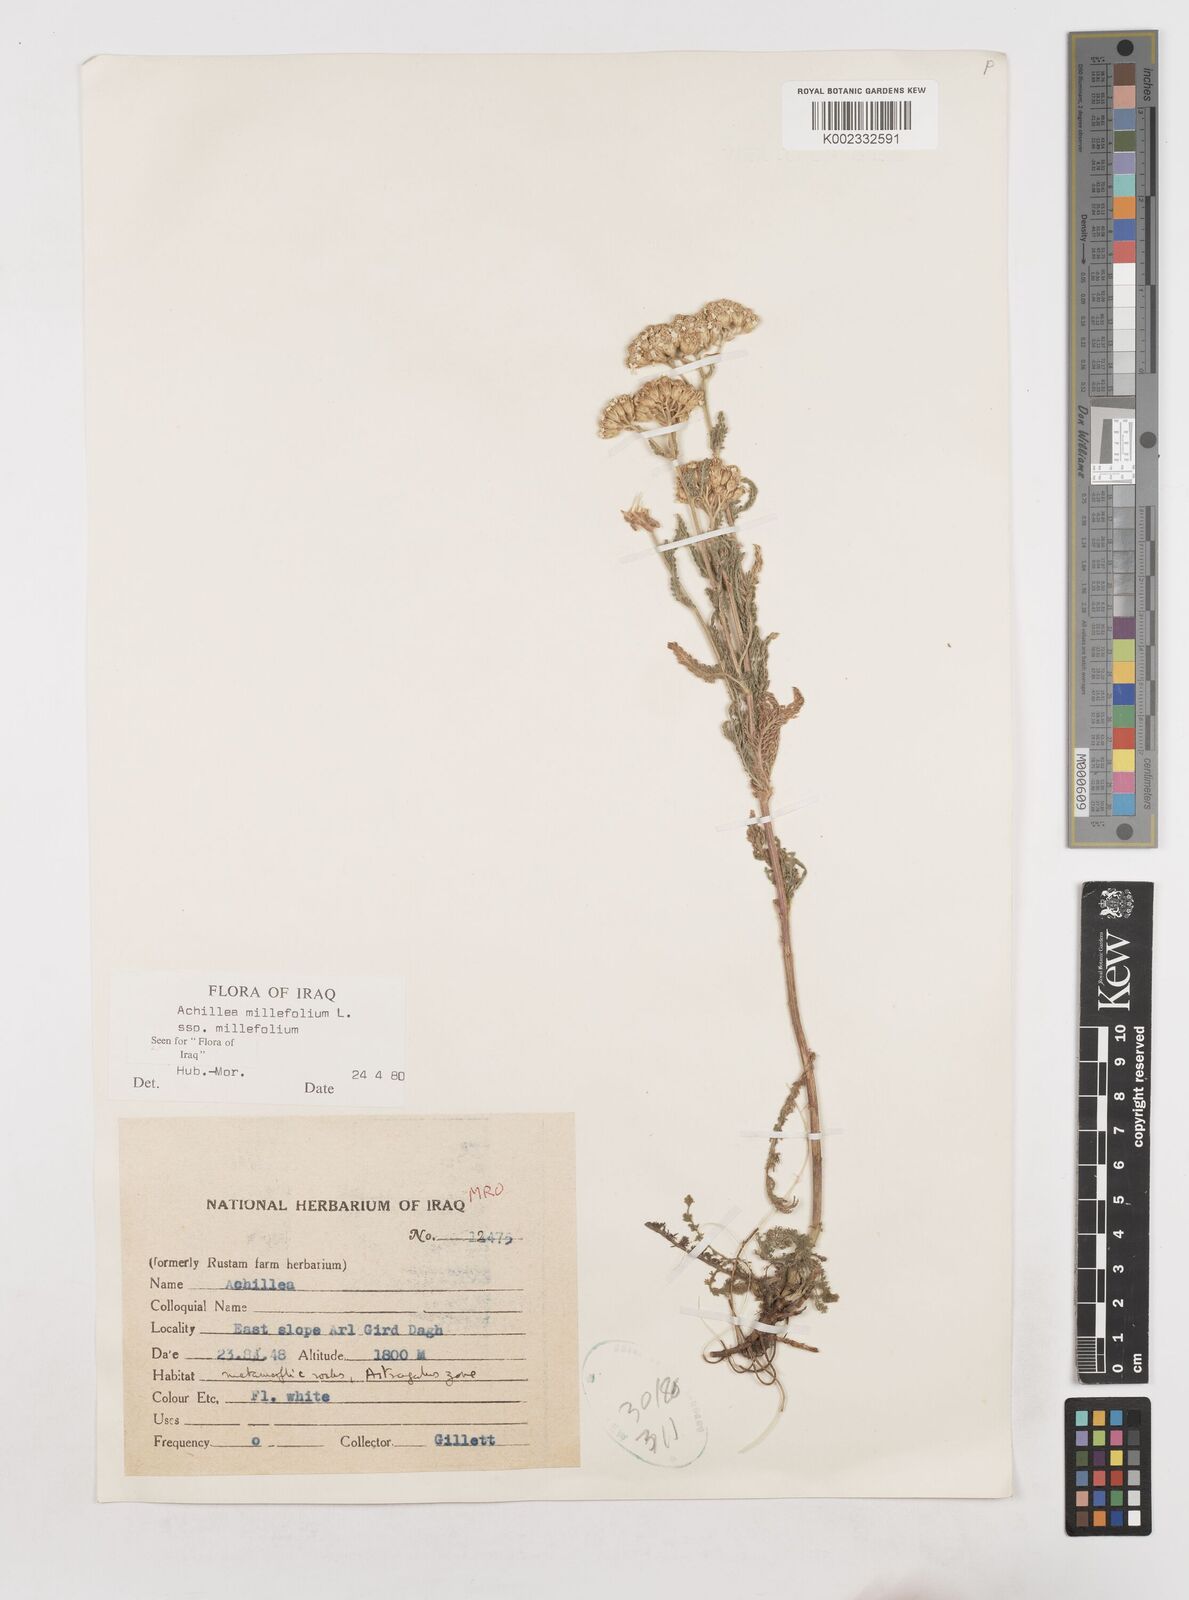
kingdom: Plantae
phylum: Tracheophyta
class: Magnoliopsida
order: Asterales
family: Asteraceae
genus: Achillea
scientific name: Achillea millefolium
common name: Yarrow
